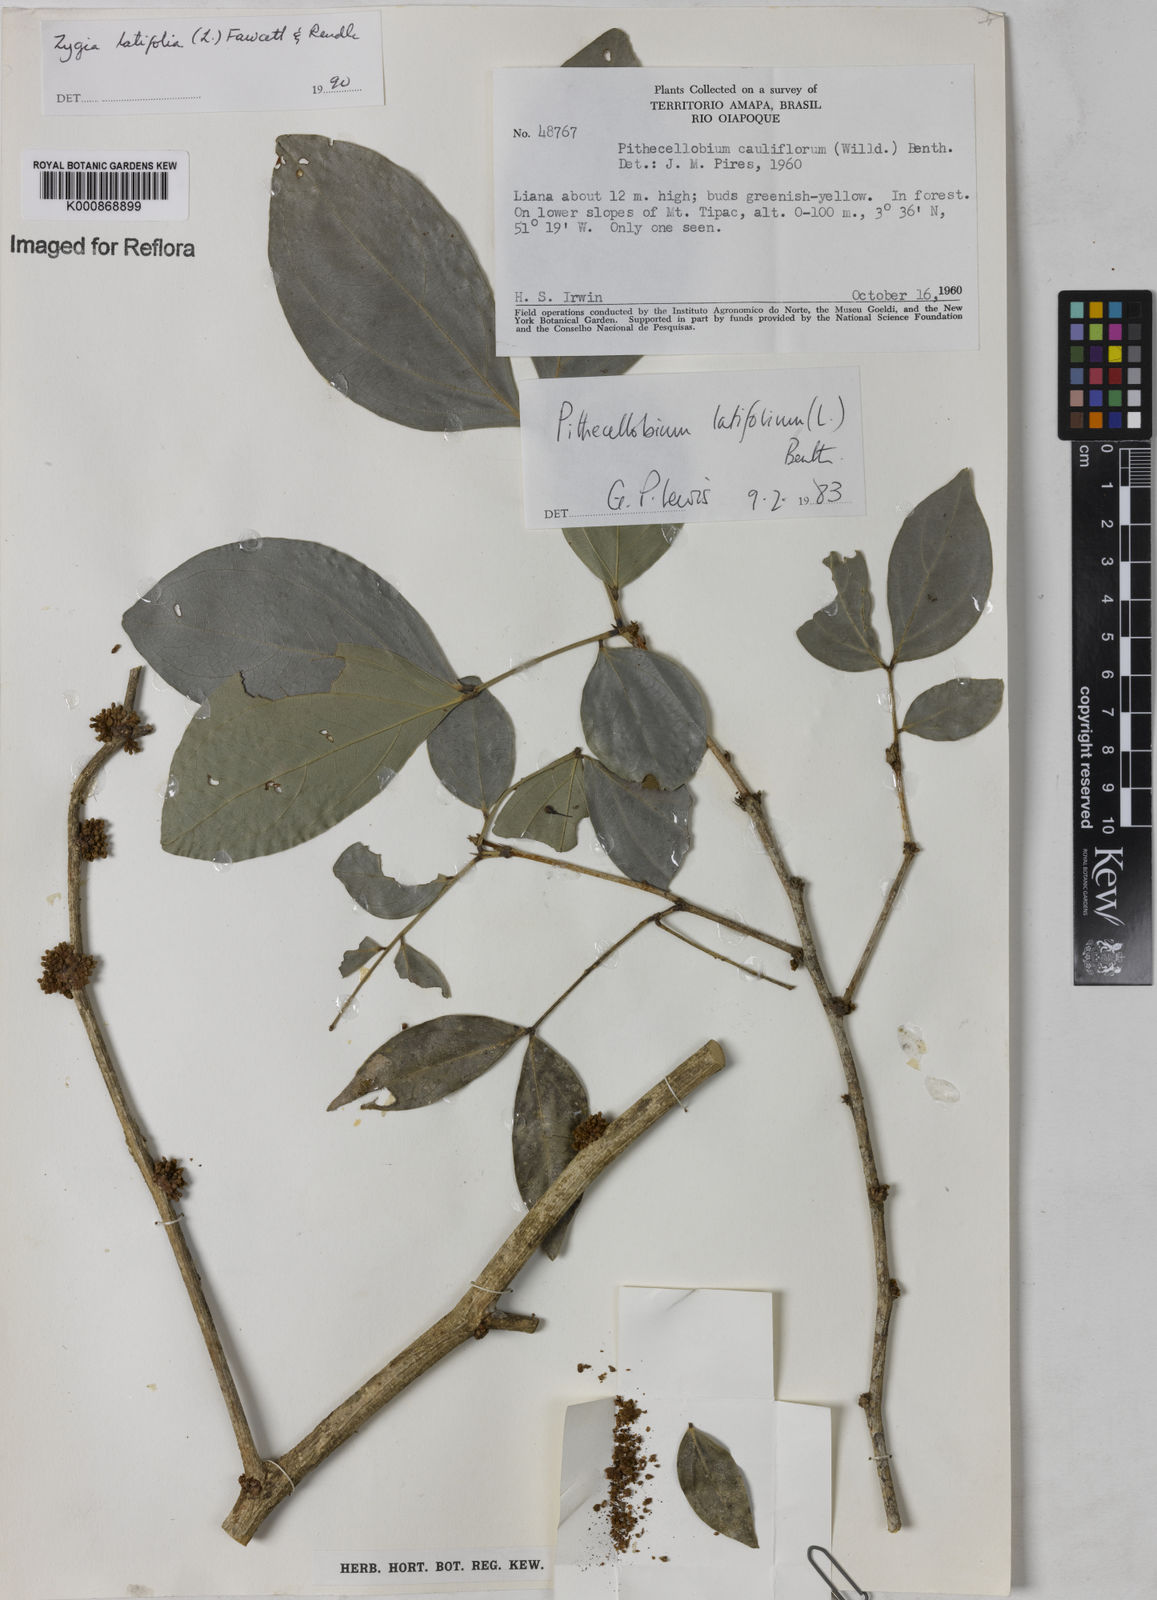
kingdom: Plantae
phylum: Tracheophyta
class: Magnoliopsida
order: Fabales
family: Fabaceae
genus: Zygia
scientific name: Zygia latifolia
